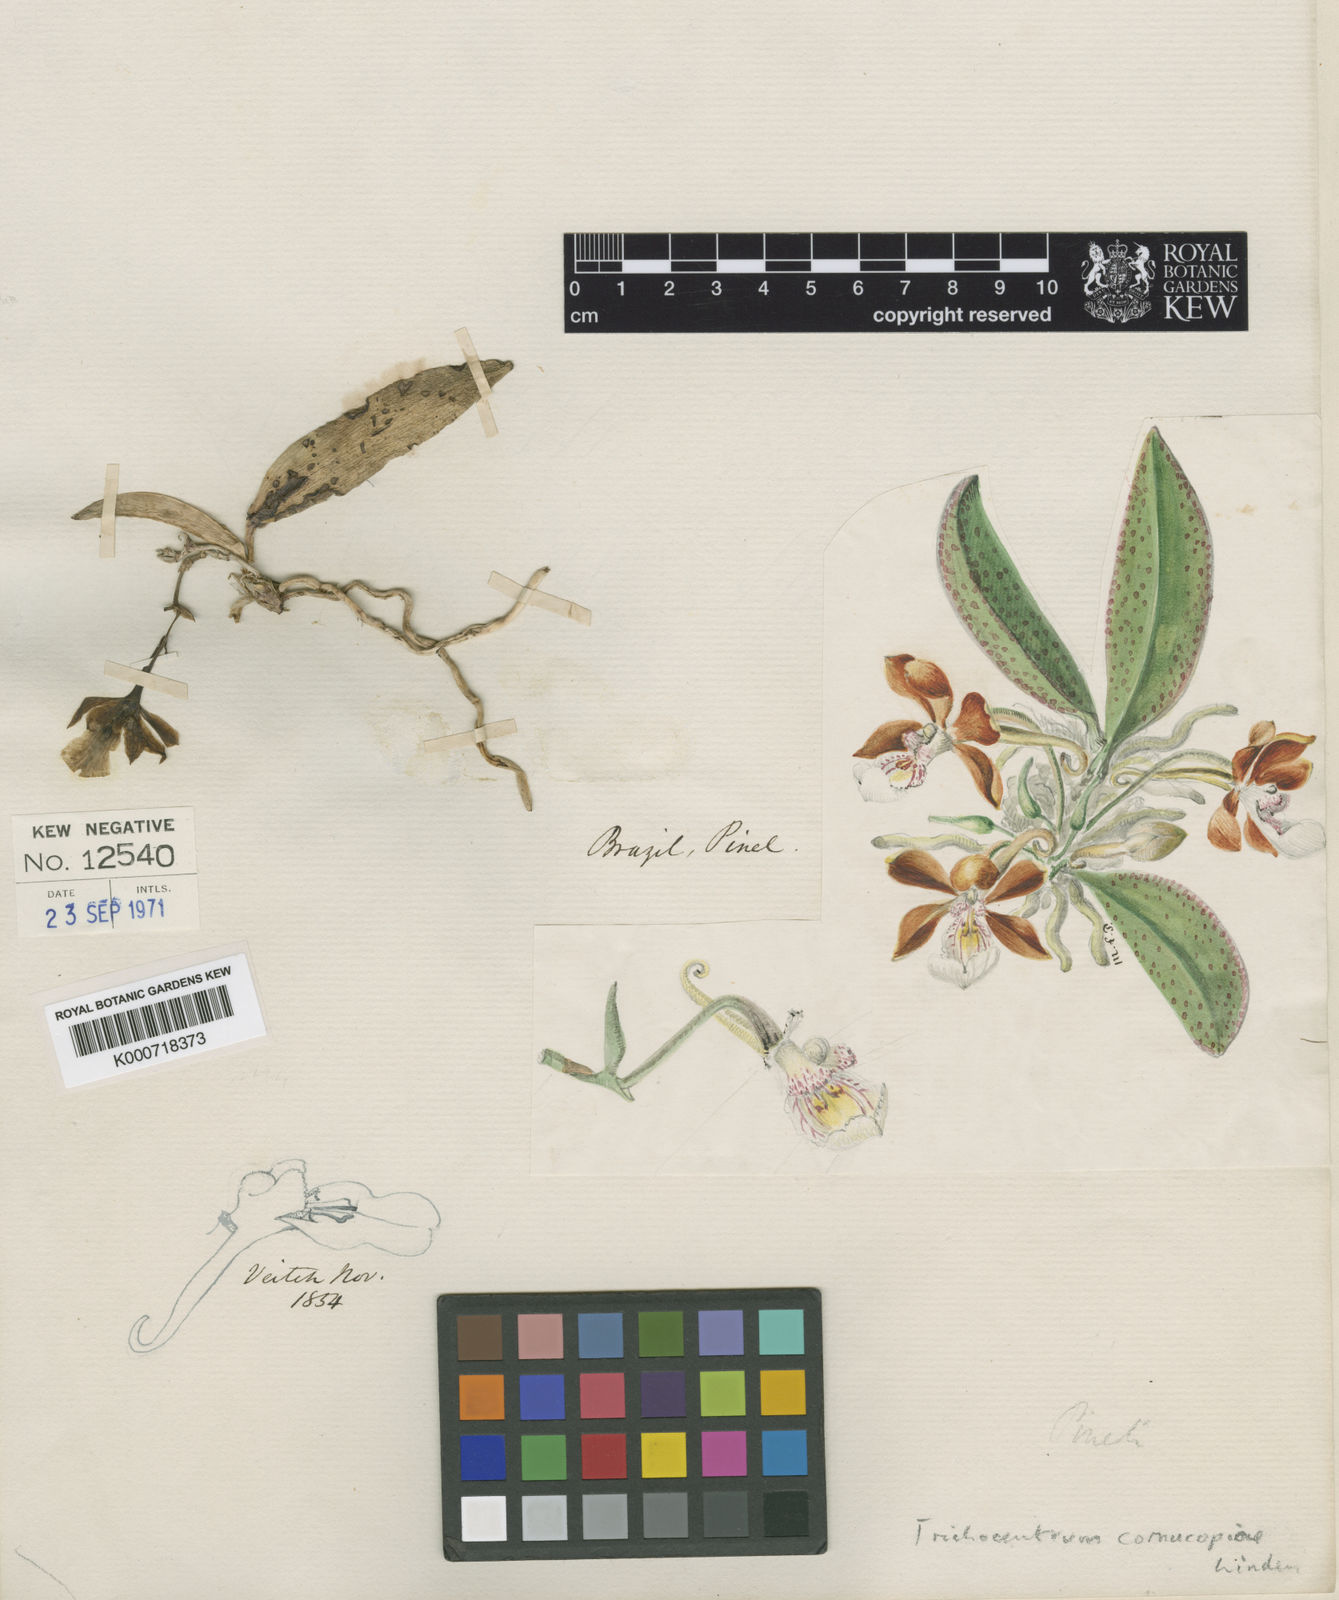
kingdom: Plantae
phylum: Tracheophyta
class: Liliopsida
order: Asparagales
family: Orchidaceae
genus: Trichocentrum
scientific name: Trichocentrum fuscum
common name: Mule-ear orchid
